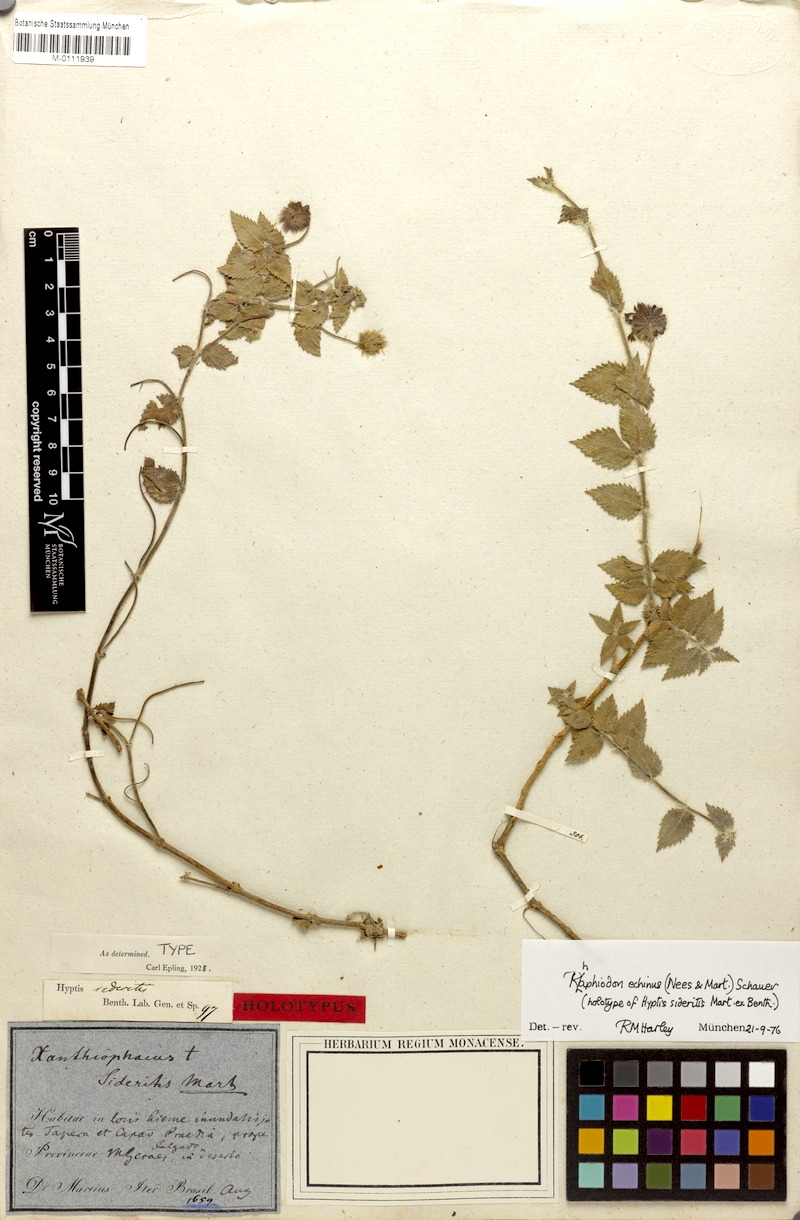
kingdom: Plantae
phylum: Tracheophyta
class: Magnoliopsida
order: Lamiales
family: Lamiaceae
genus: Rhaphiodon
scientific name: Rhaphiodon echinus
